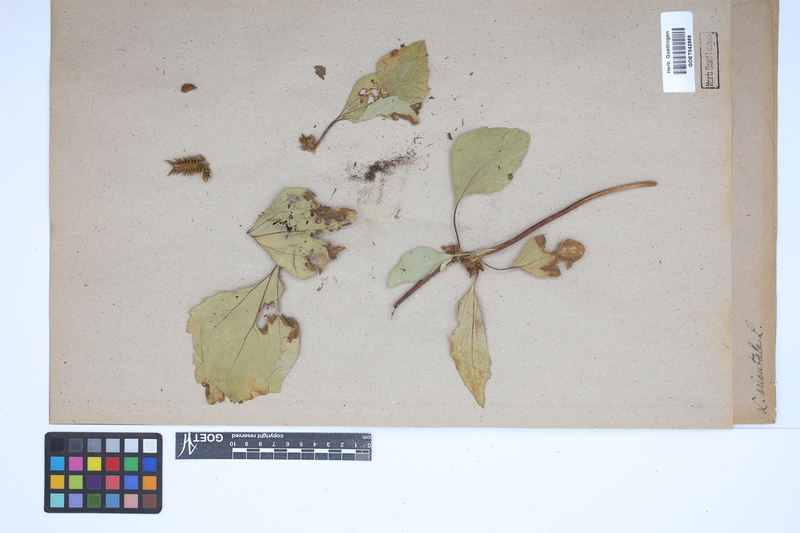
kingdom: Plantae
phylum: Tracheophyta
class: Magnoliopsida
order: Asterales
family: Asteraceae
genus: Xanthium
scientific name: Xanthium orientale
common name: Californian burr
